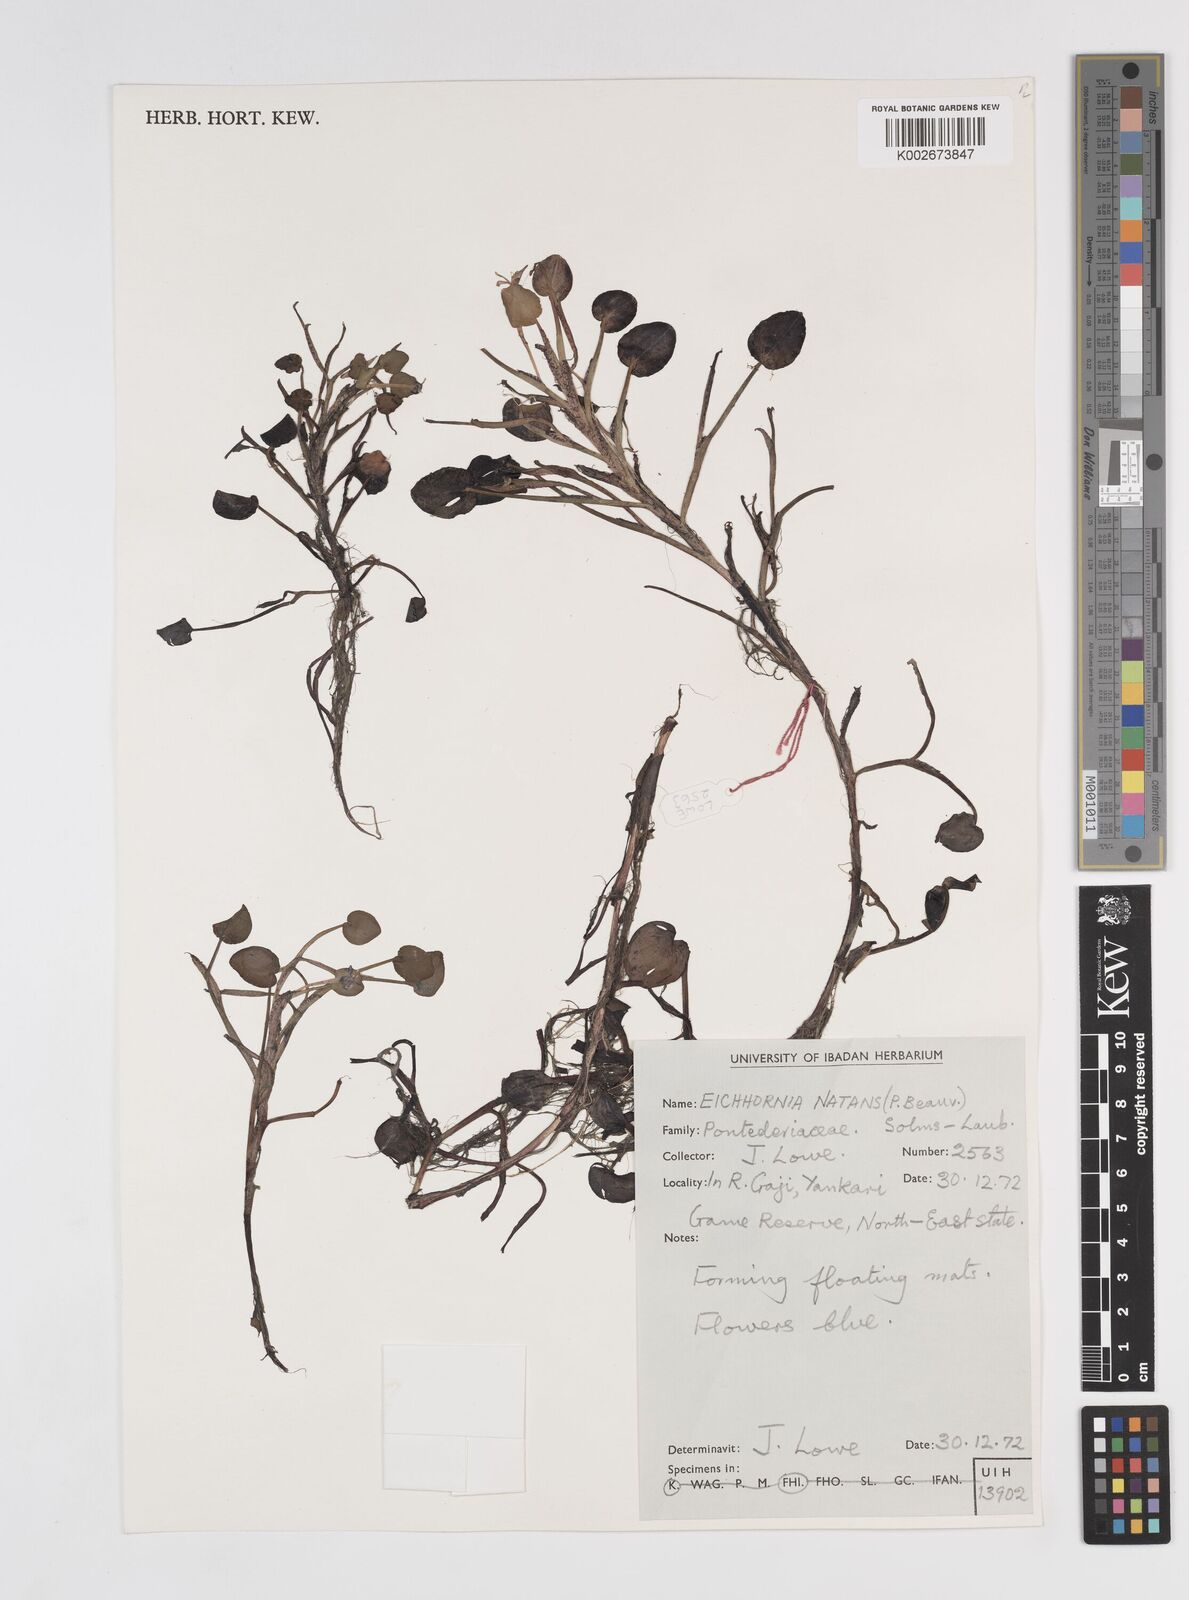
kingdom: Plantae
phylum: Tracheophyta
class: Liliopsida
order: Commelinales
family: Pontederiaceae
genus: Pontederia
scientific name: Pontederia diversifolia
